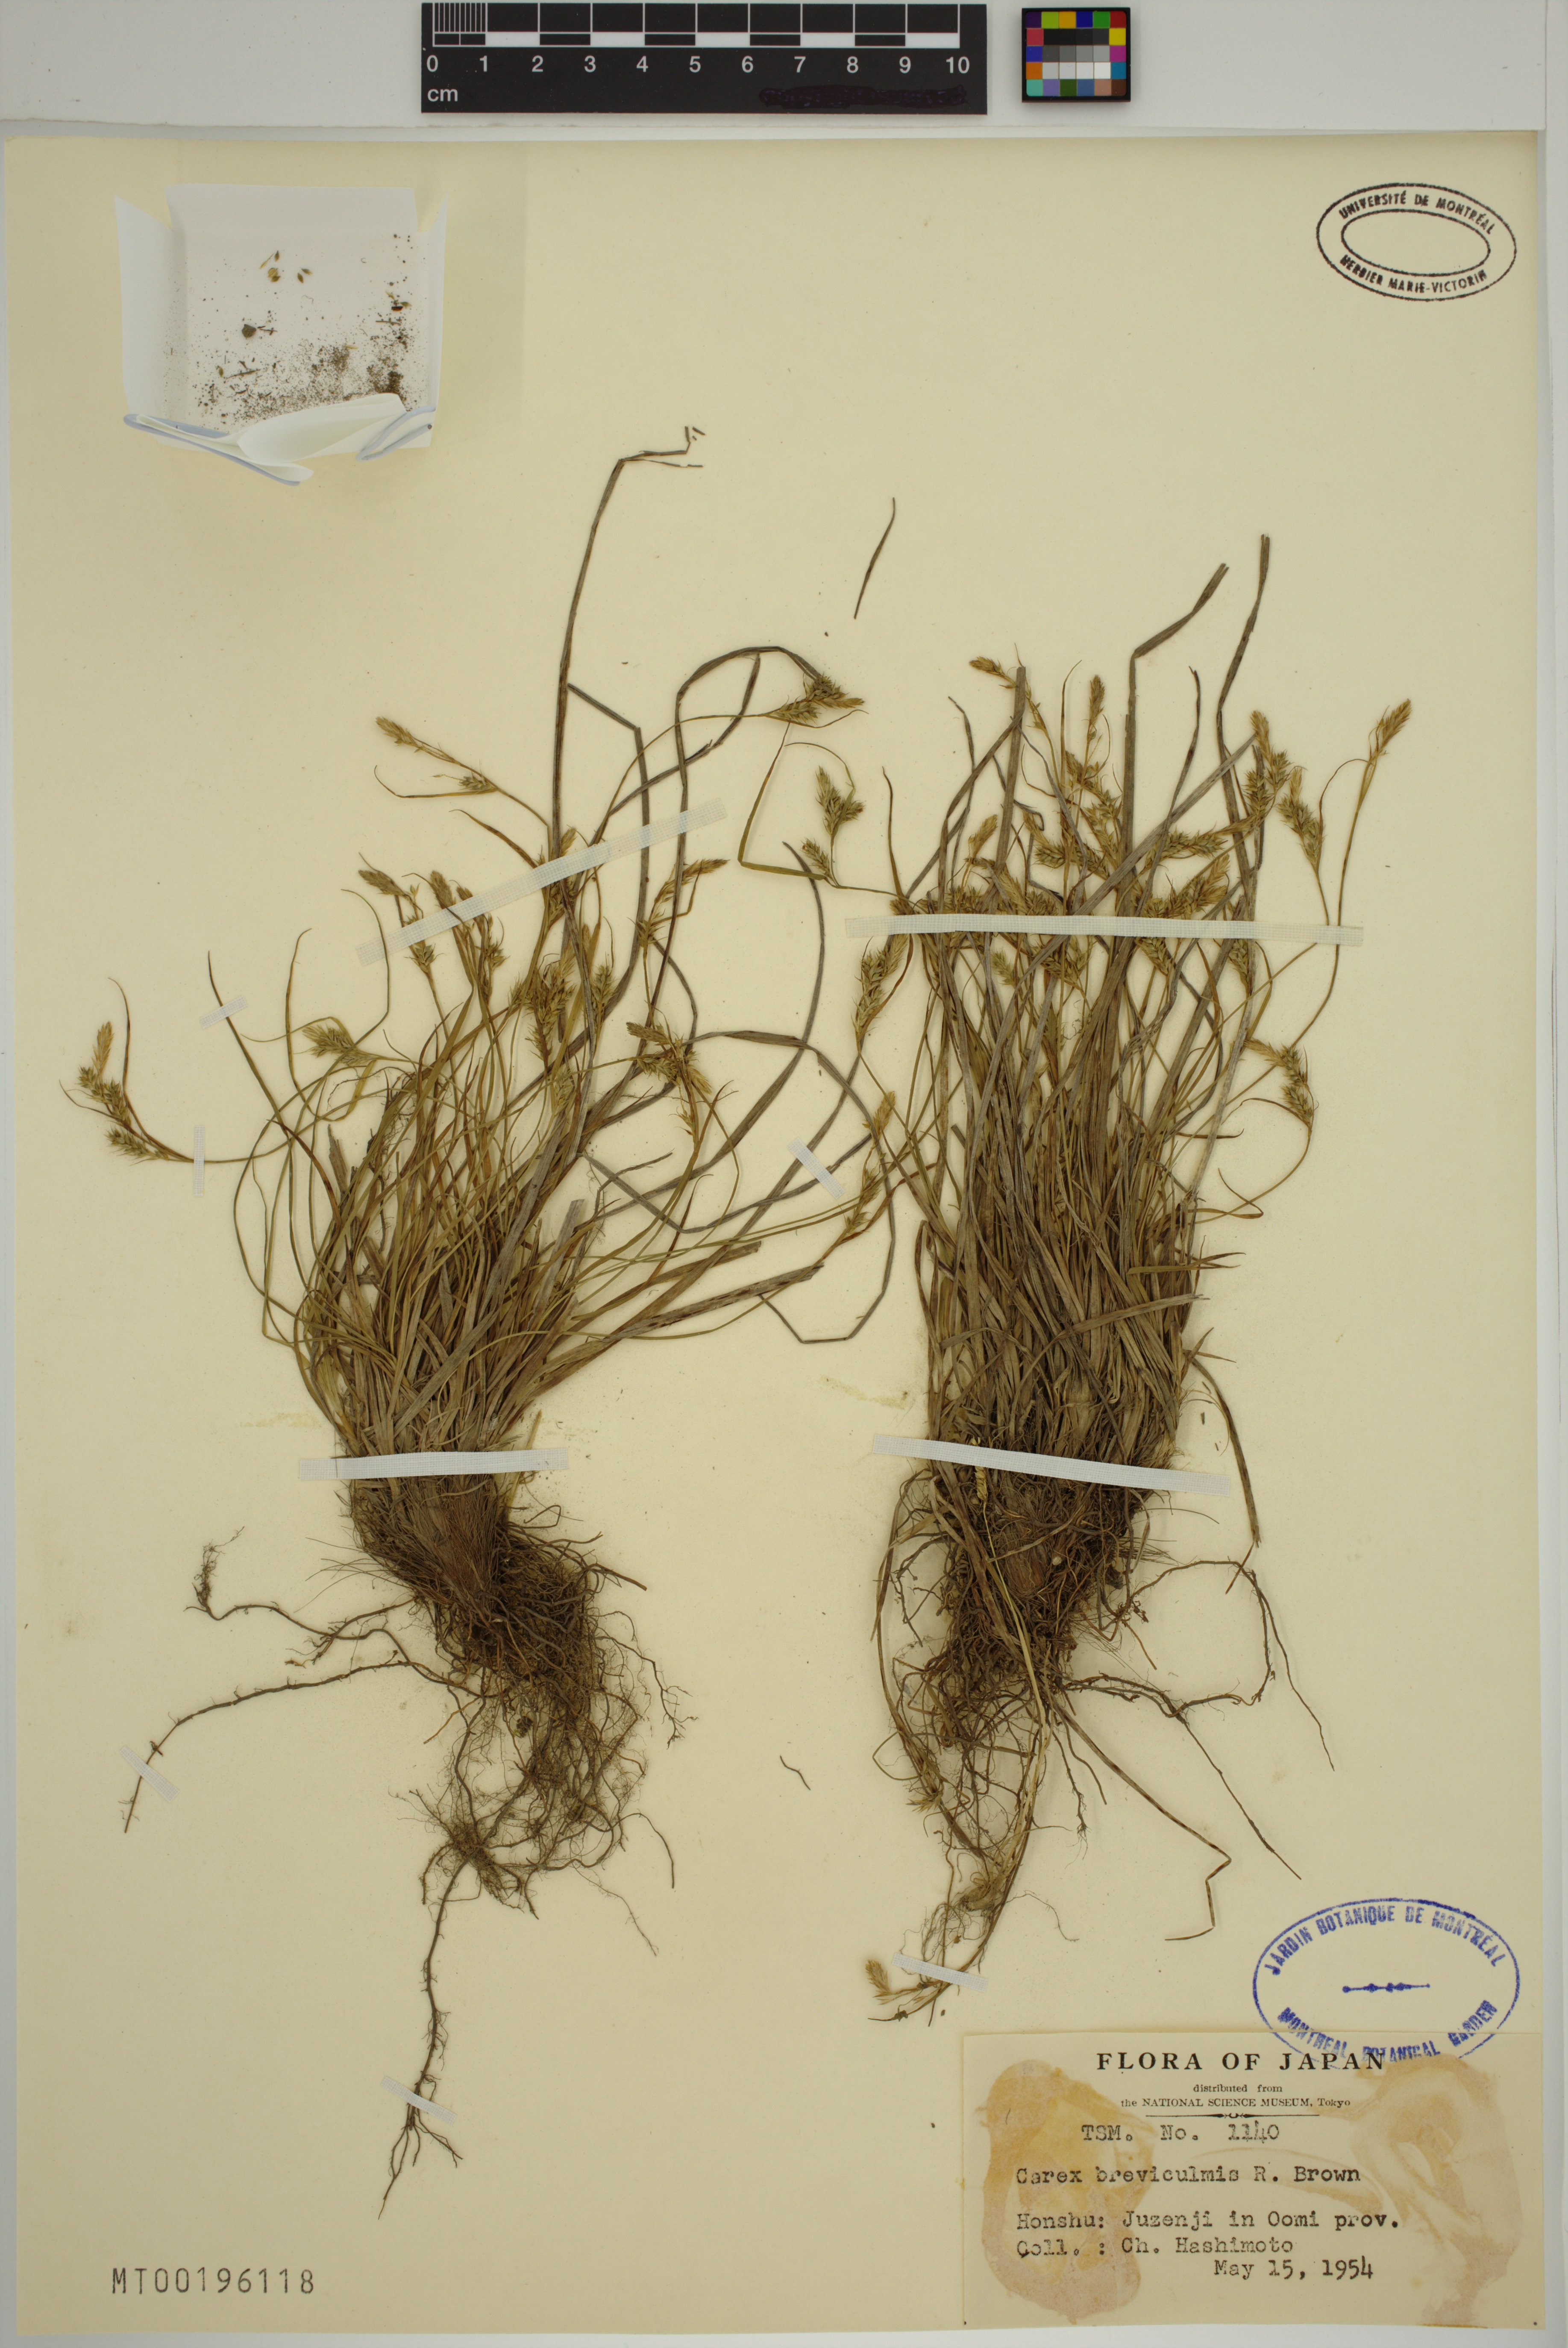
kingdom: Plantae
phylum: Tracheophyta
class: Liliopsida
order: Poales
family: Cyperaceae
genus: Carex
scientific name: Carex breviculmis
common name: Asian shortstem sedge
